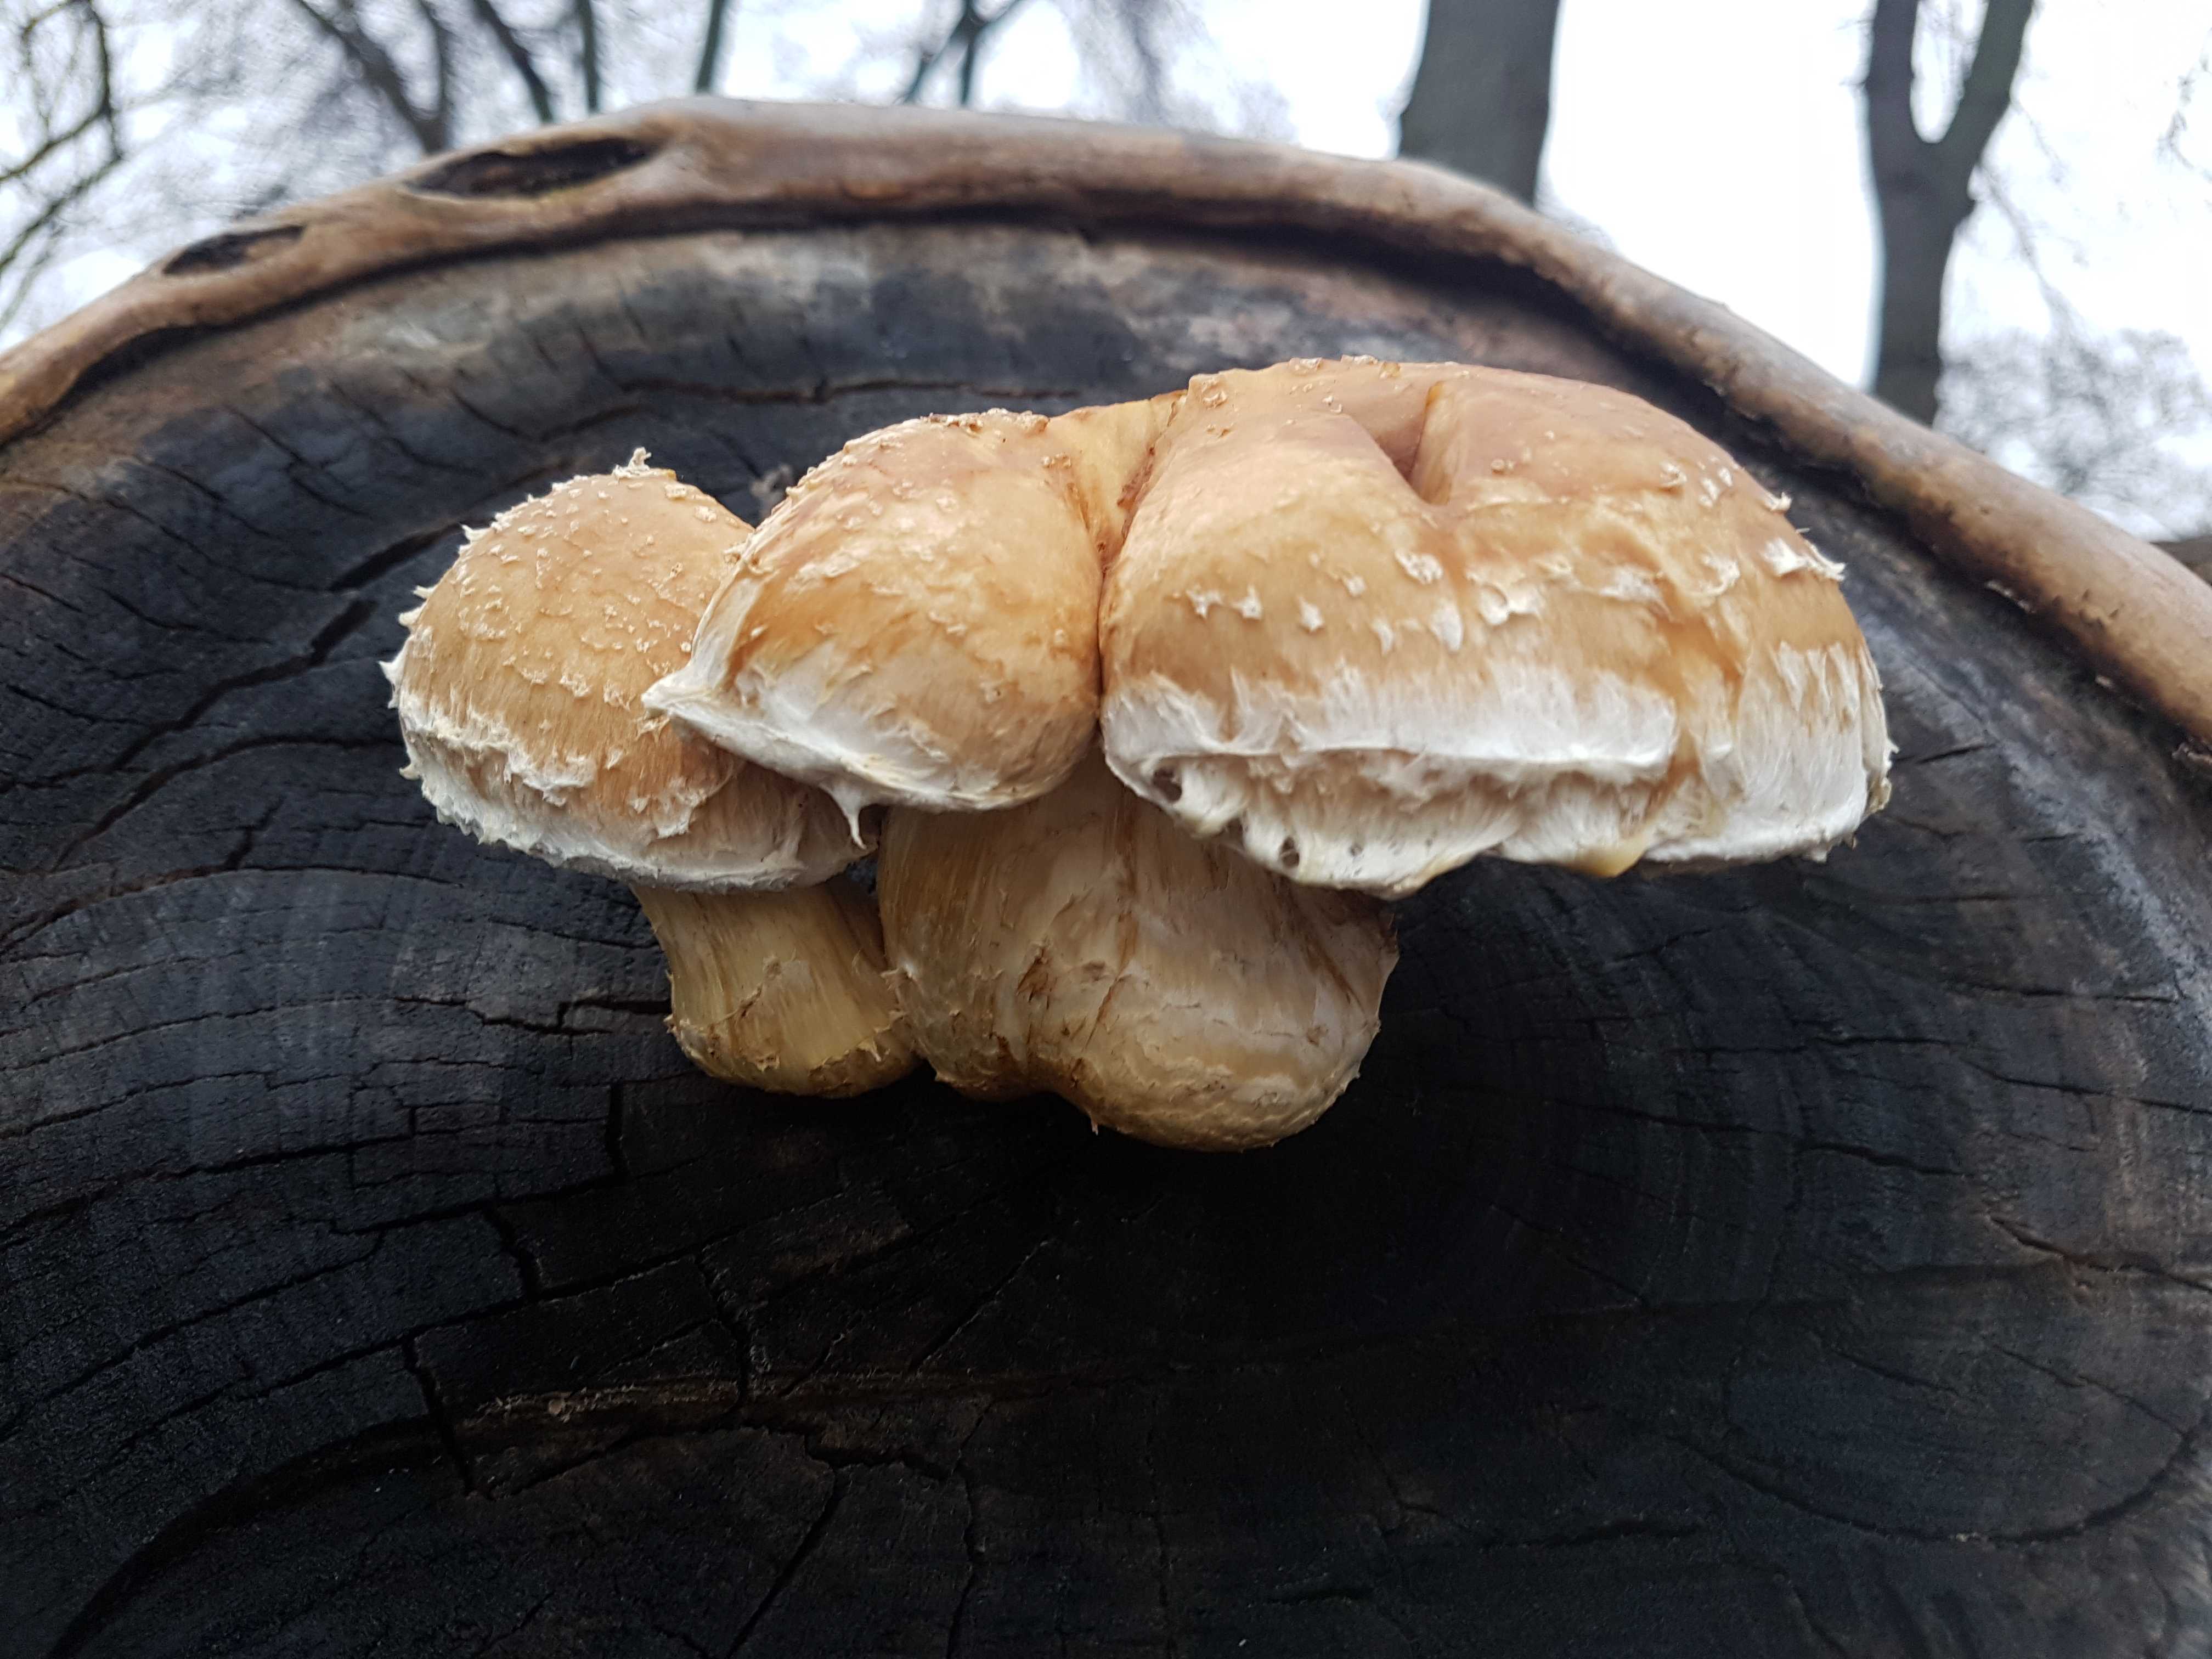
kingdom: Fungi
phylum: Basidiomycota
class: Agaricomycetes
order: Agaricales
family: Strophariaceae
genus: Pholiota
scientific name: Pholiota populnea
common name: poppel-kæmpeskælhat
